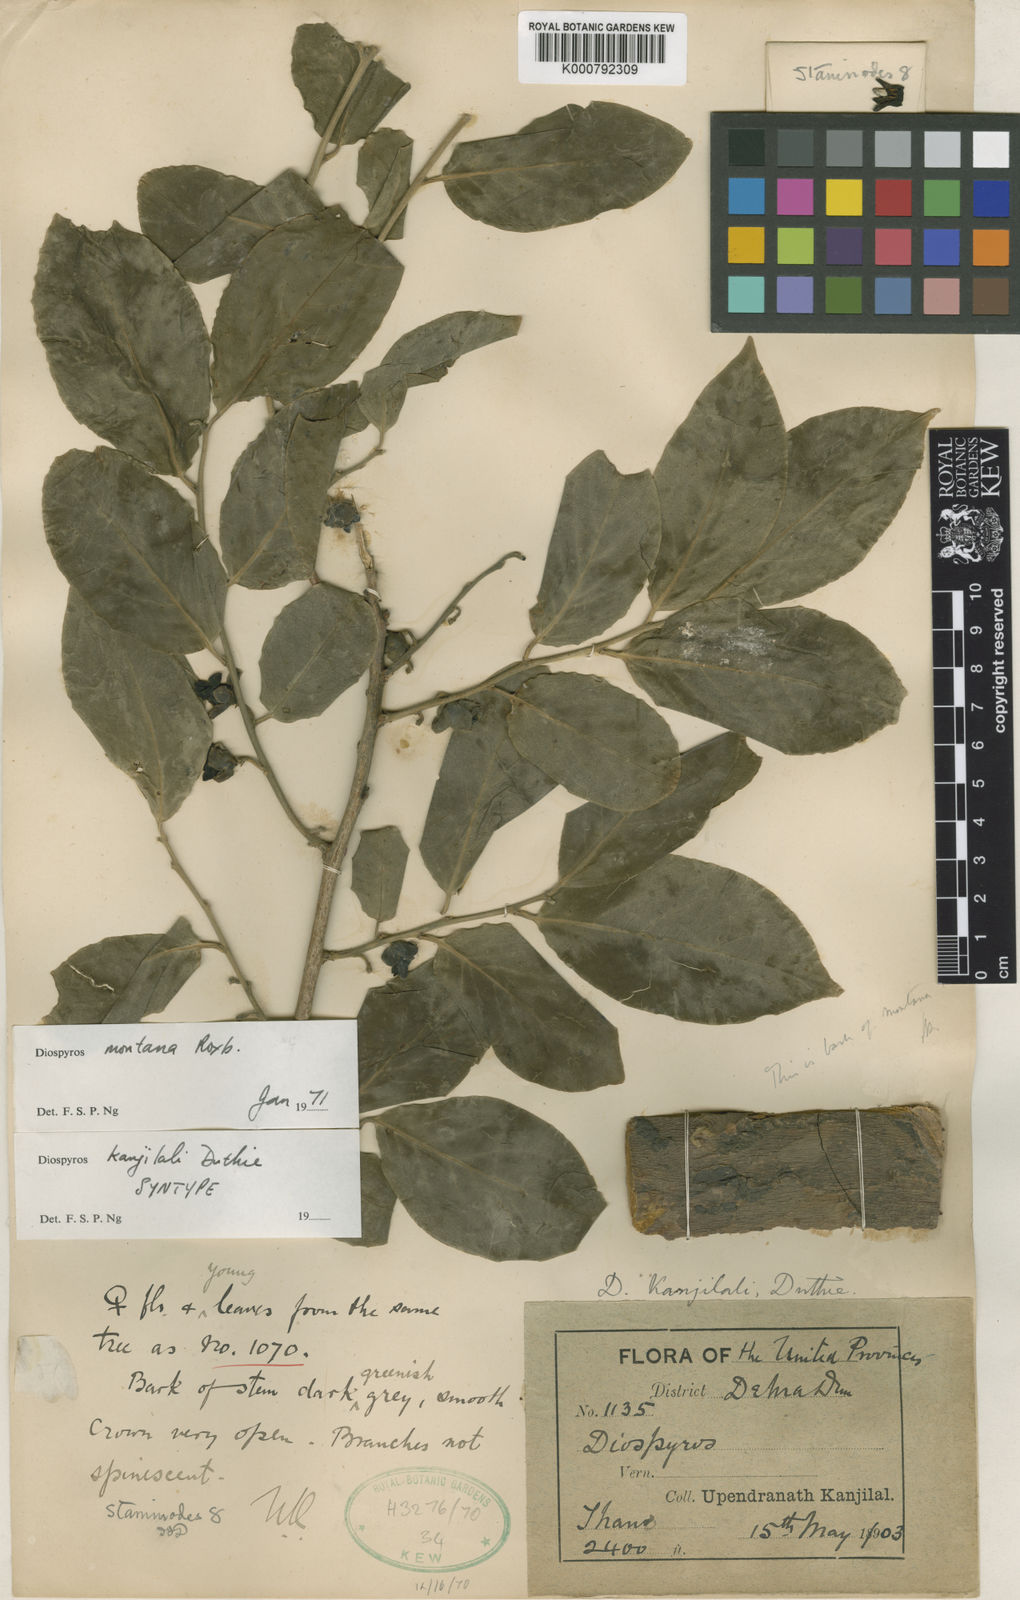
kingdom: Plantae
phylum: Tracheophyta
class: Magnoliopsida
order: Ericales
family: Ebenaceae
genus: Diospyros
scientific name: Diospyros montana
